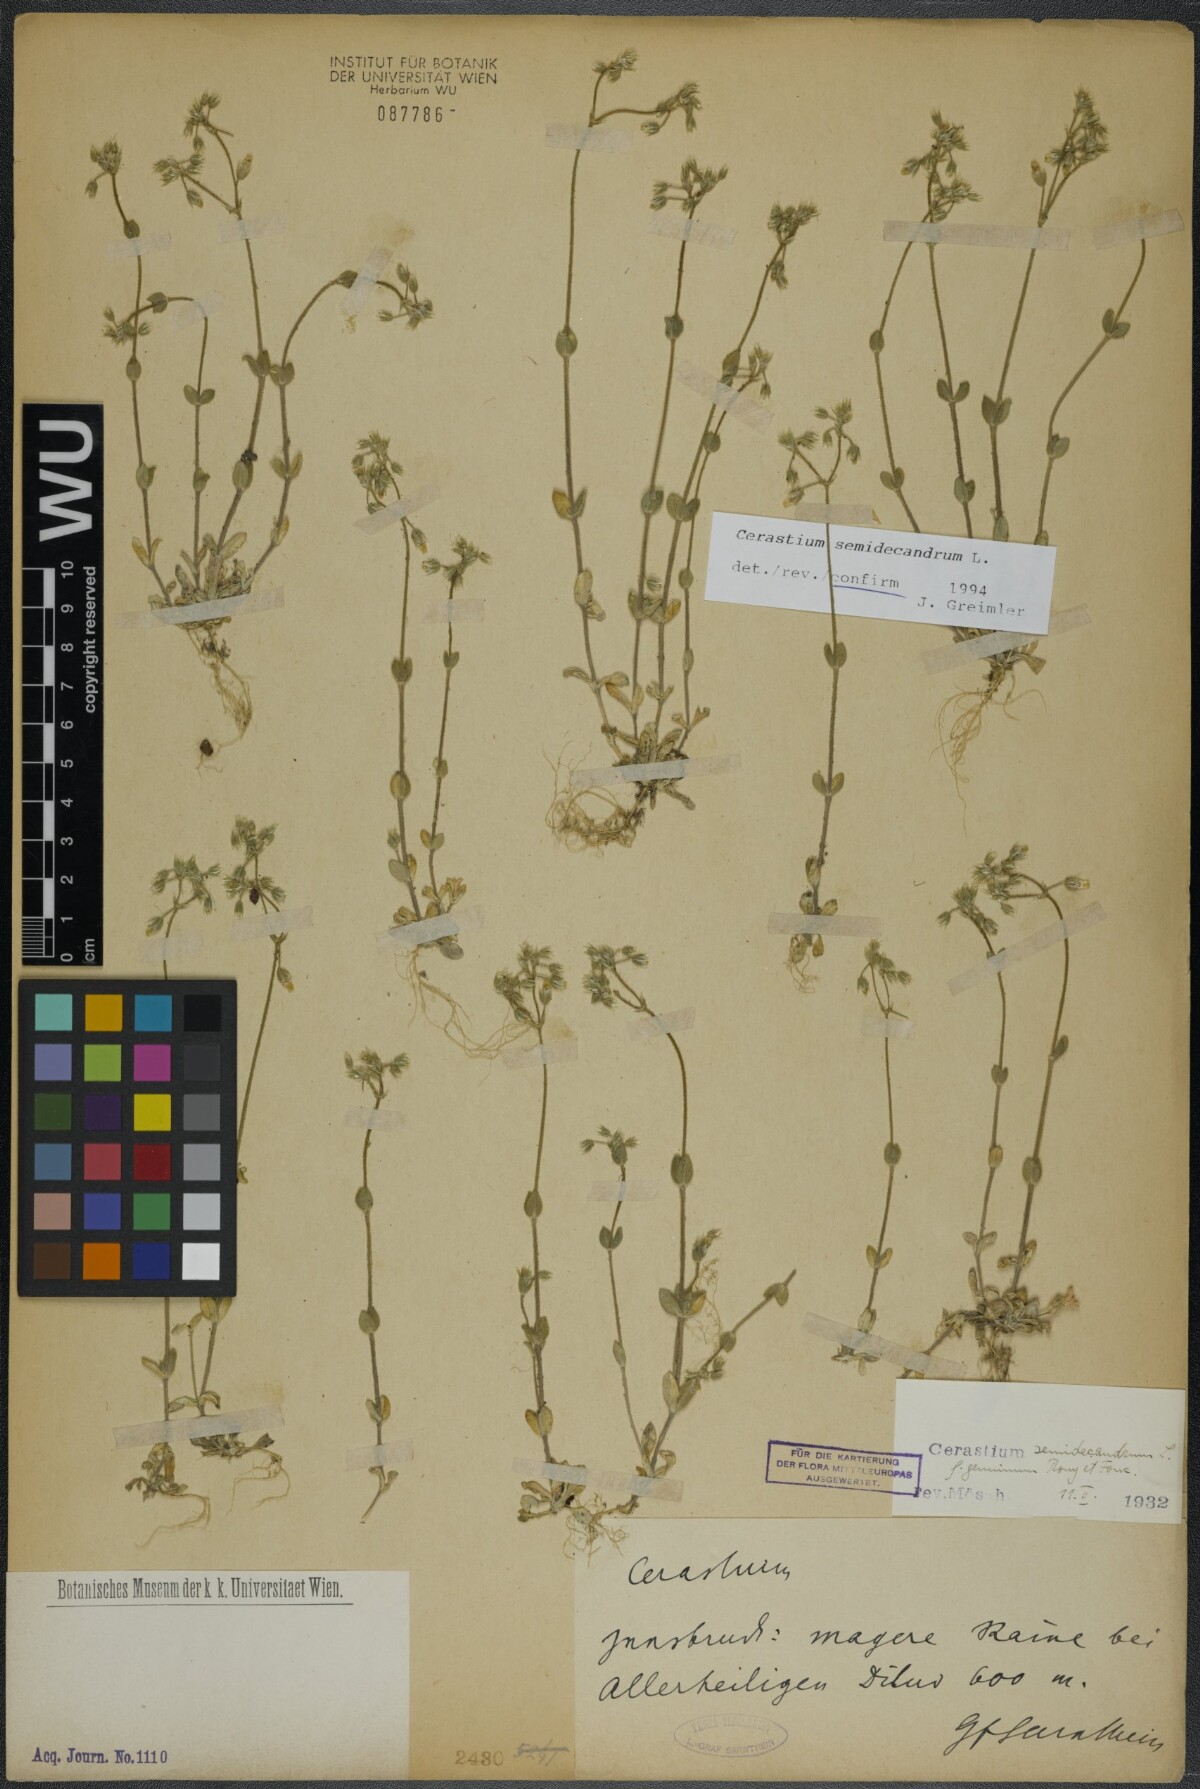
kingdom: Plantae
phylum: Tracheophyta
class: Magnoliopsida
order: Caryophyllales
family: Caryophyllaceae
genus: Cerastium
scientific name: Cerastium semidecandrum
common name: Little mouse-ear
